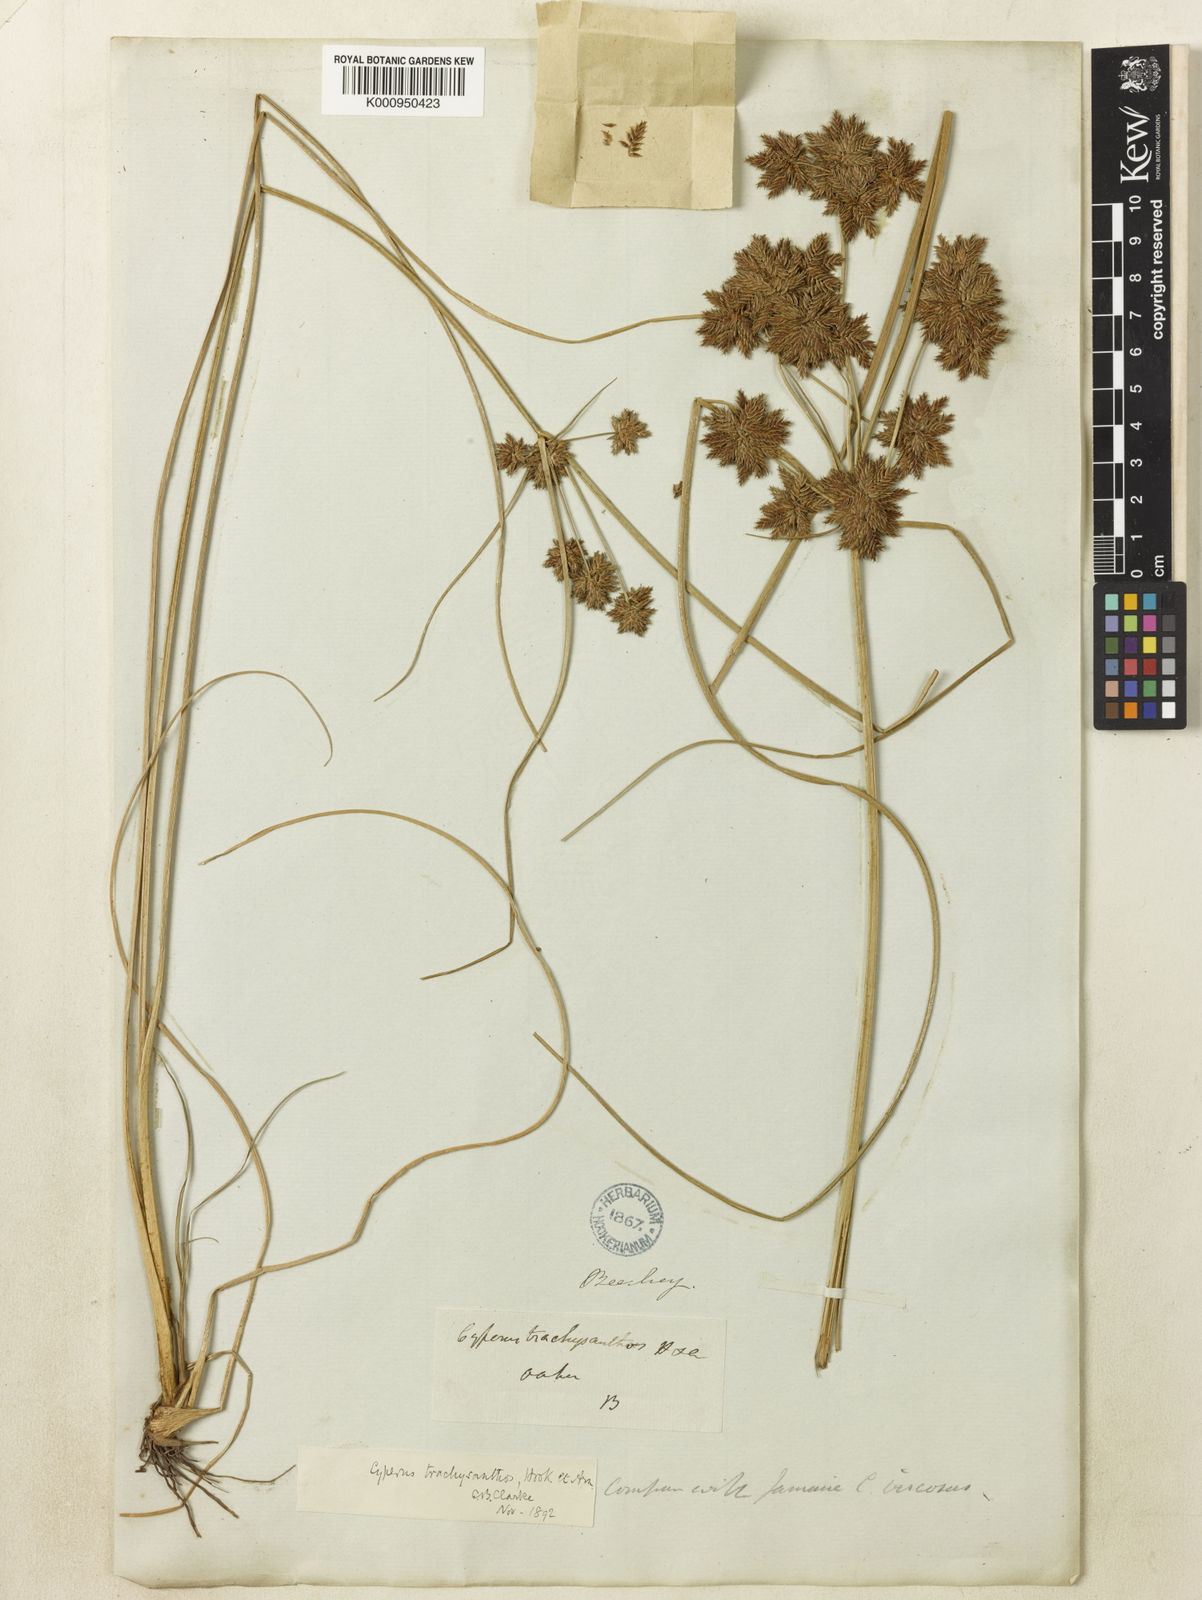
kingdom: Plantae
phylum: Tracheophyta
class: Liliopsida
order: Poales
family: Cyperaceae
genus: Cyperus
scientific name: Cyperus trachysanthos
